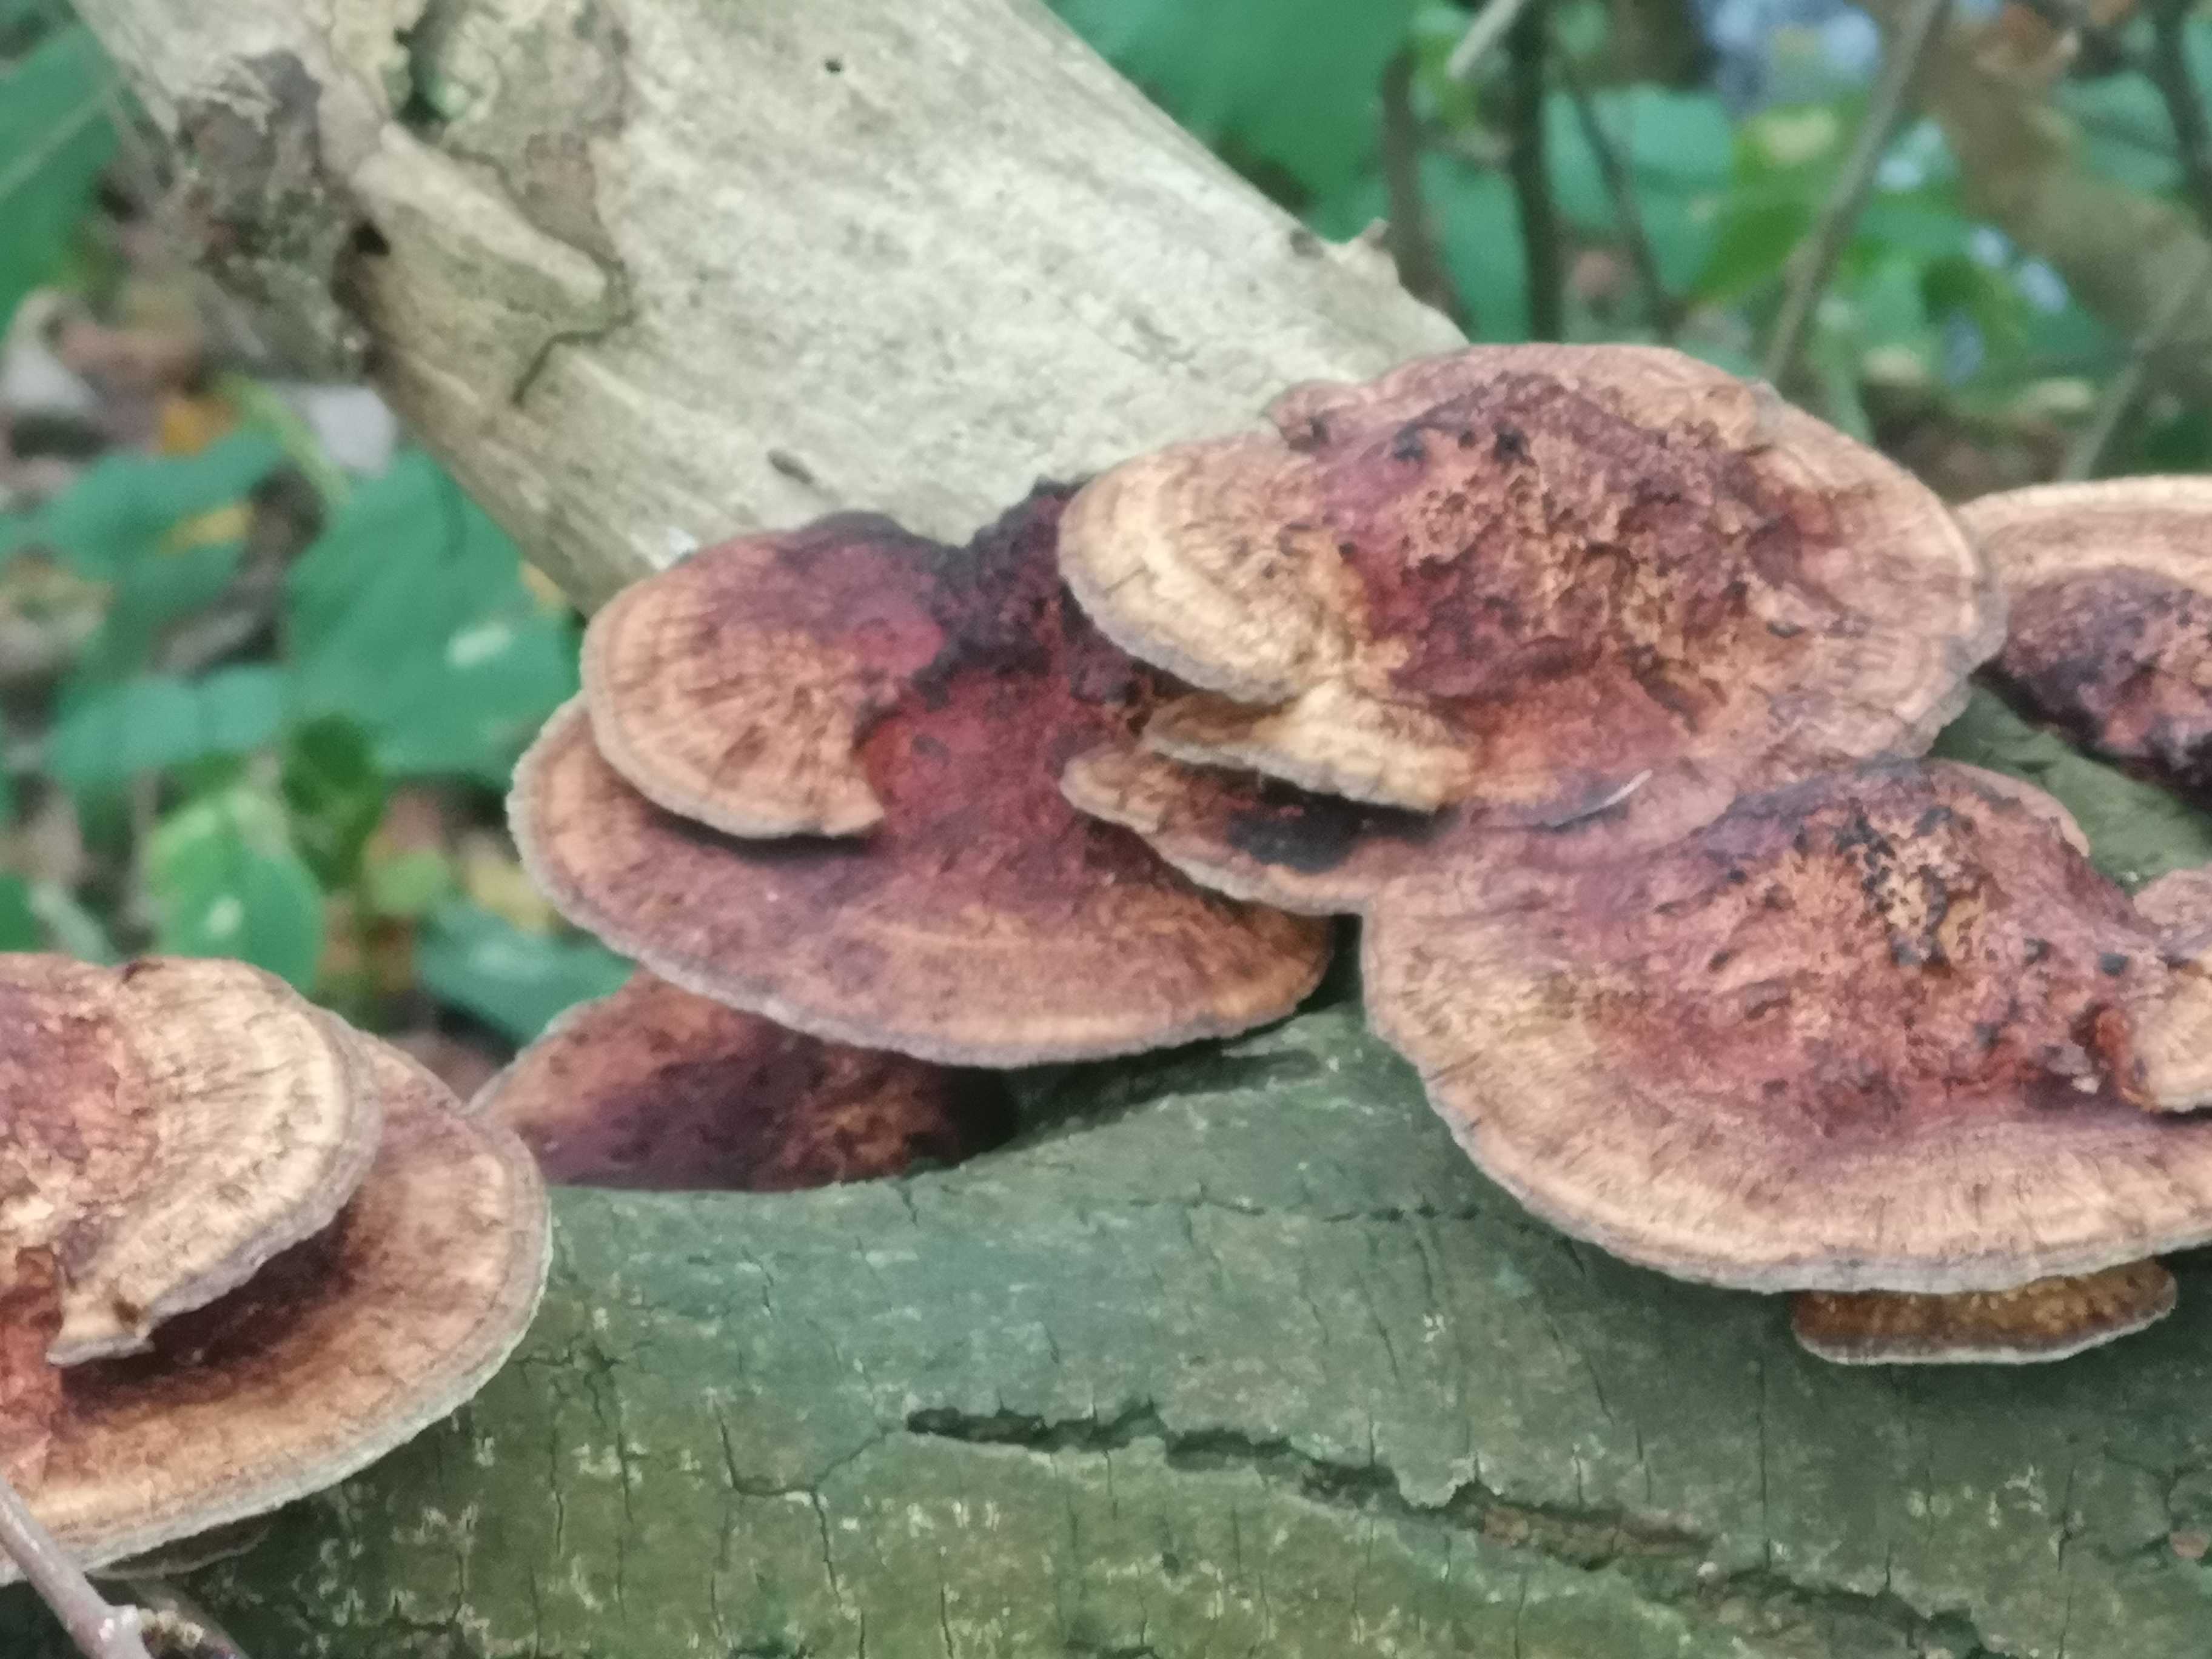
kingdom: Fungi
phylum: Basidiomycota
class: Agaricomycetes
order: Polyporales
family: Polyporaceae
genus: Daedaleopsis
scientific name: Daedaleopsis confragosa
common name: rødmende læderporesvamp
